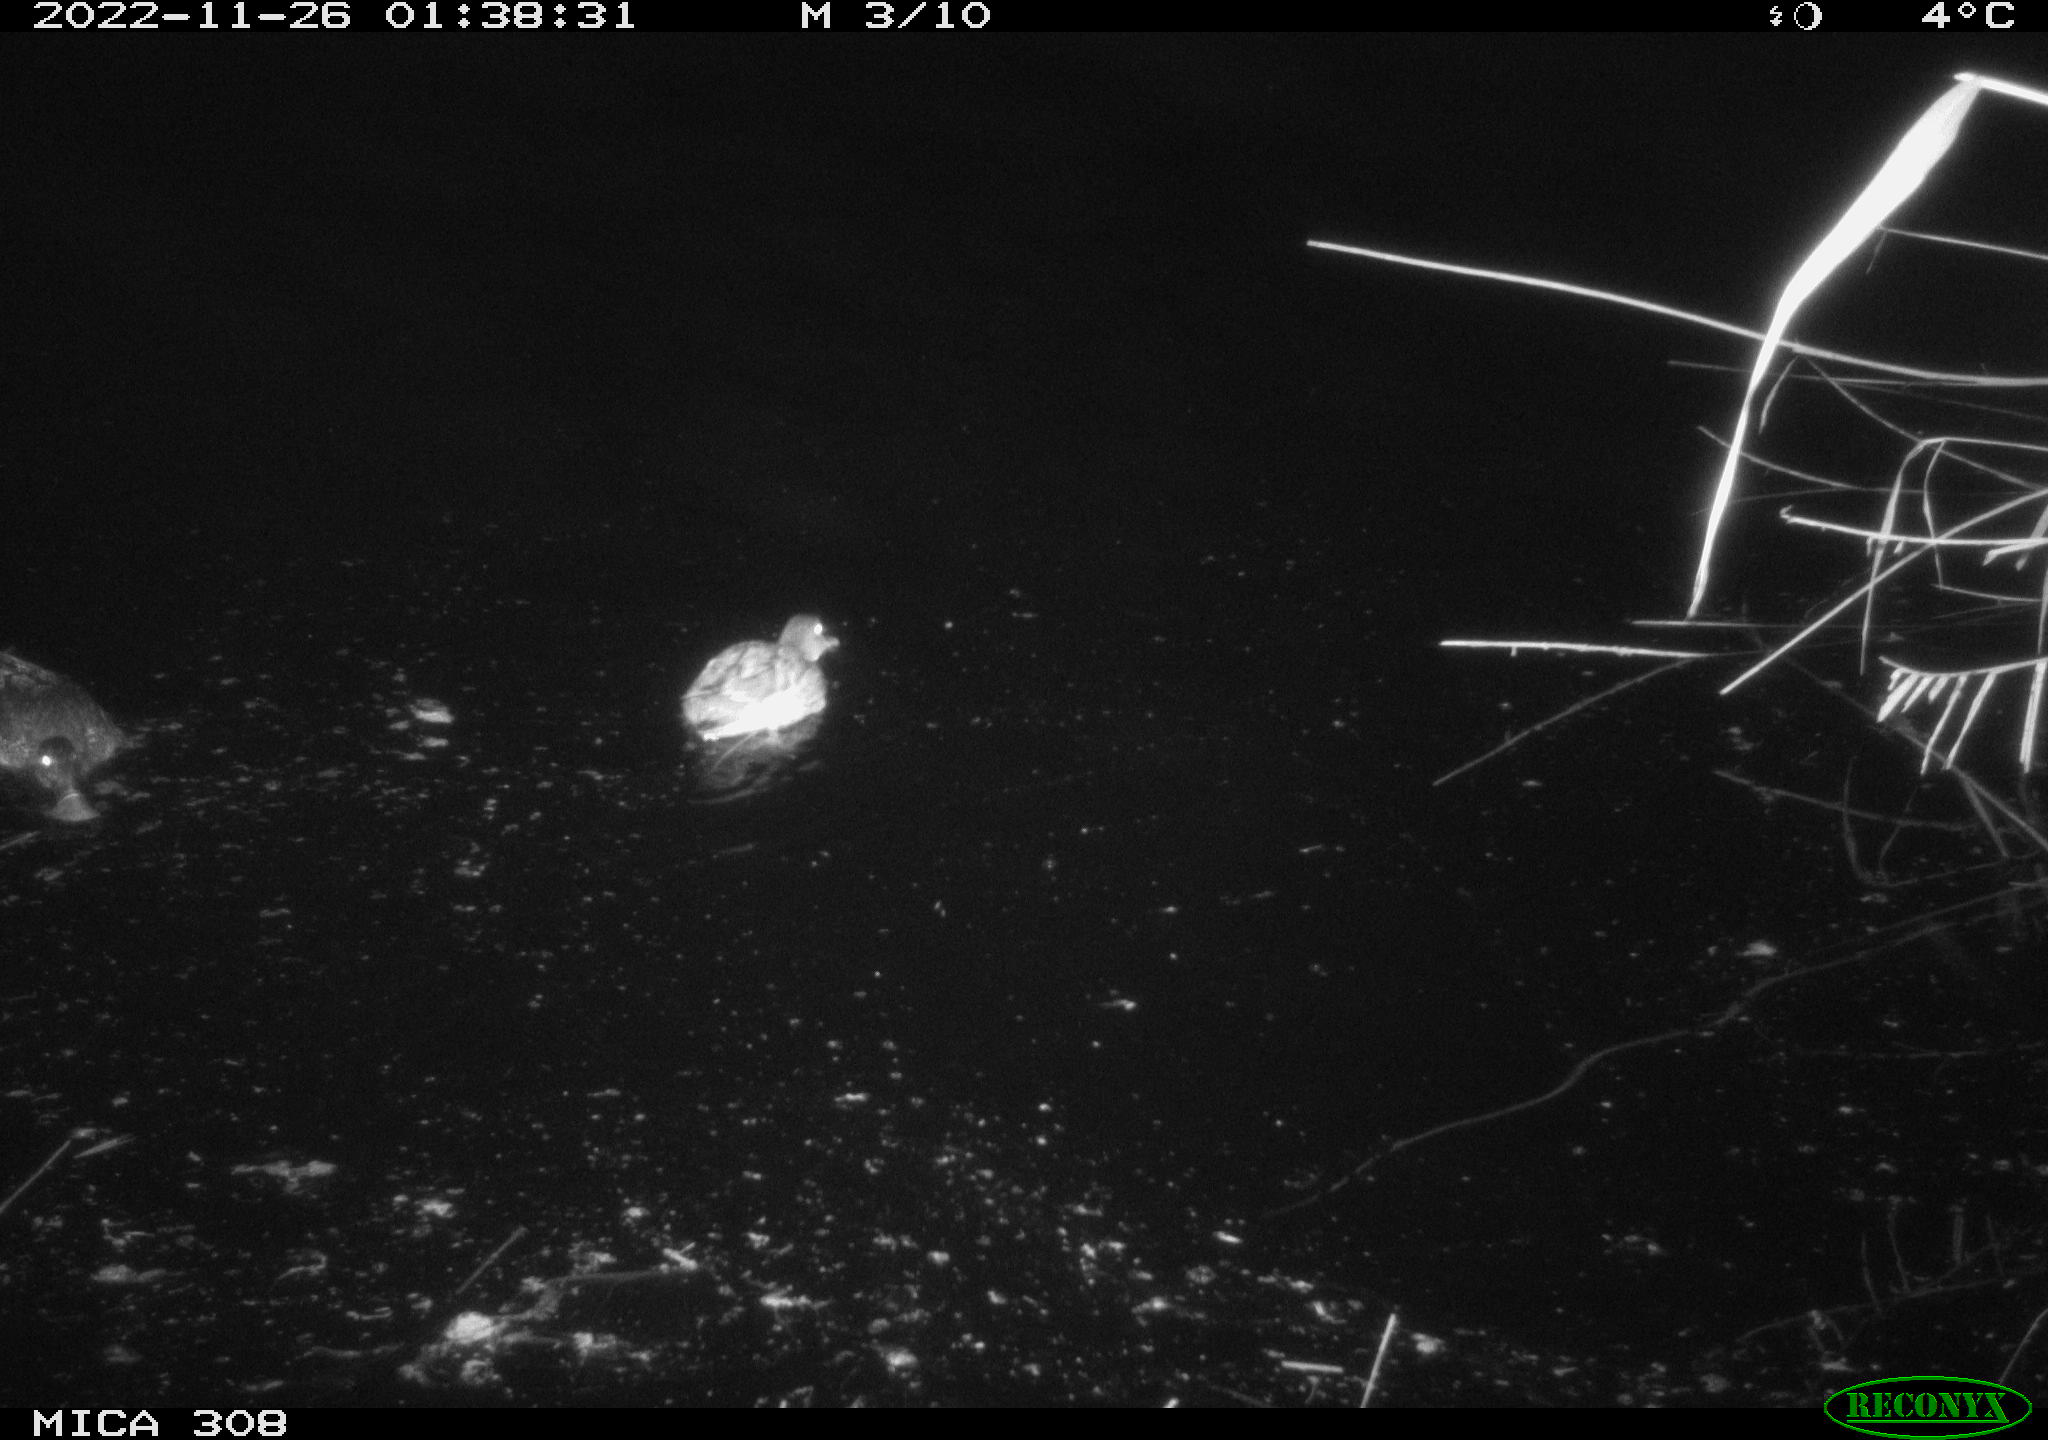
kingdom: Animalia
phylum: Chordata
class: Aves
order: Anseriformes
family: Anatidae
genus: Anas
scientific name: Anas
